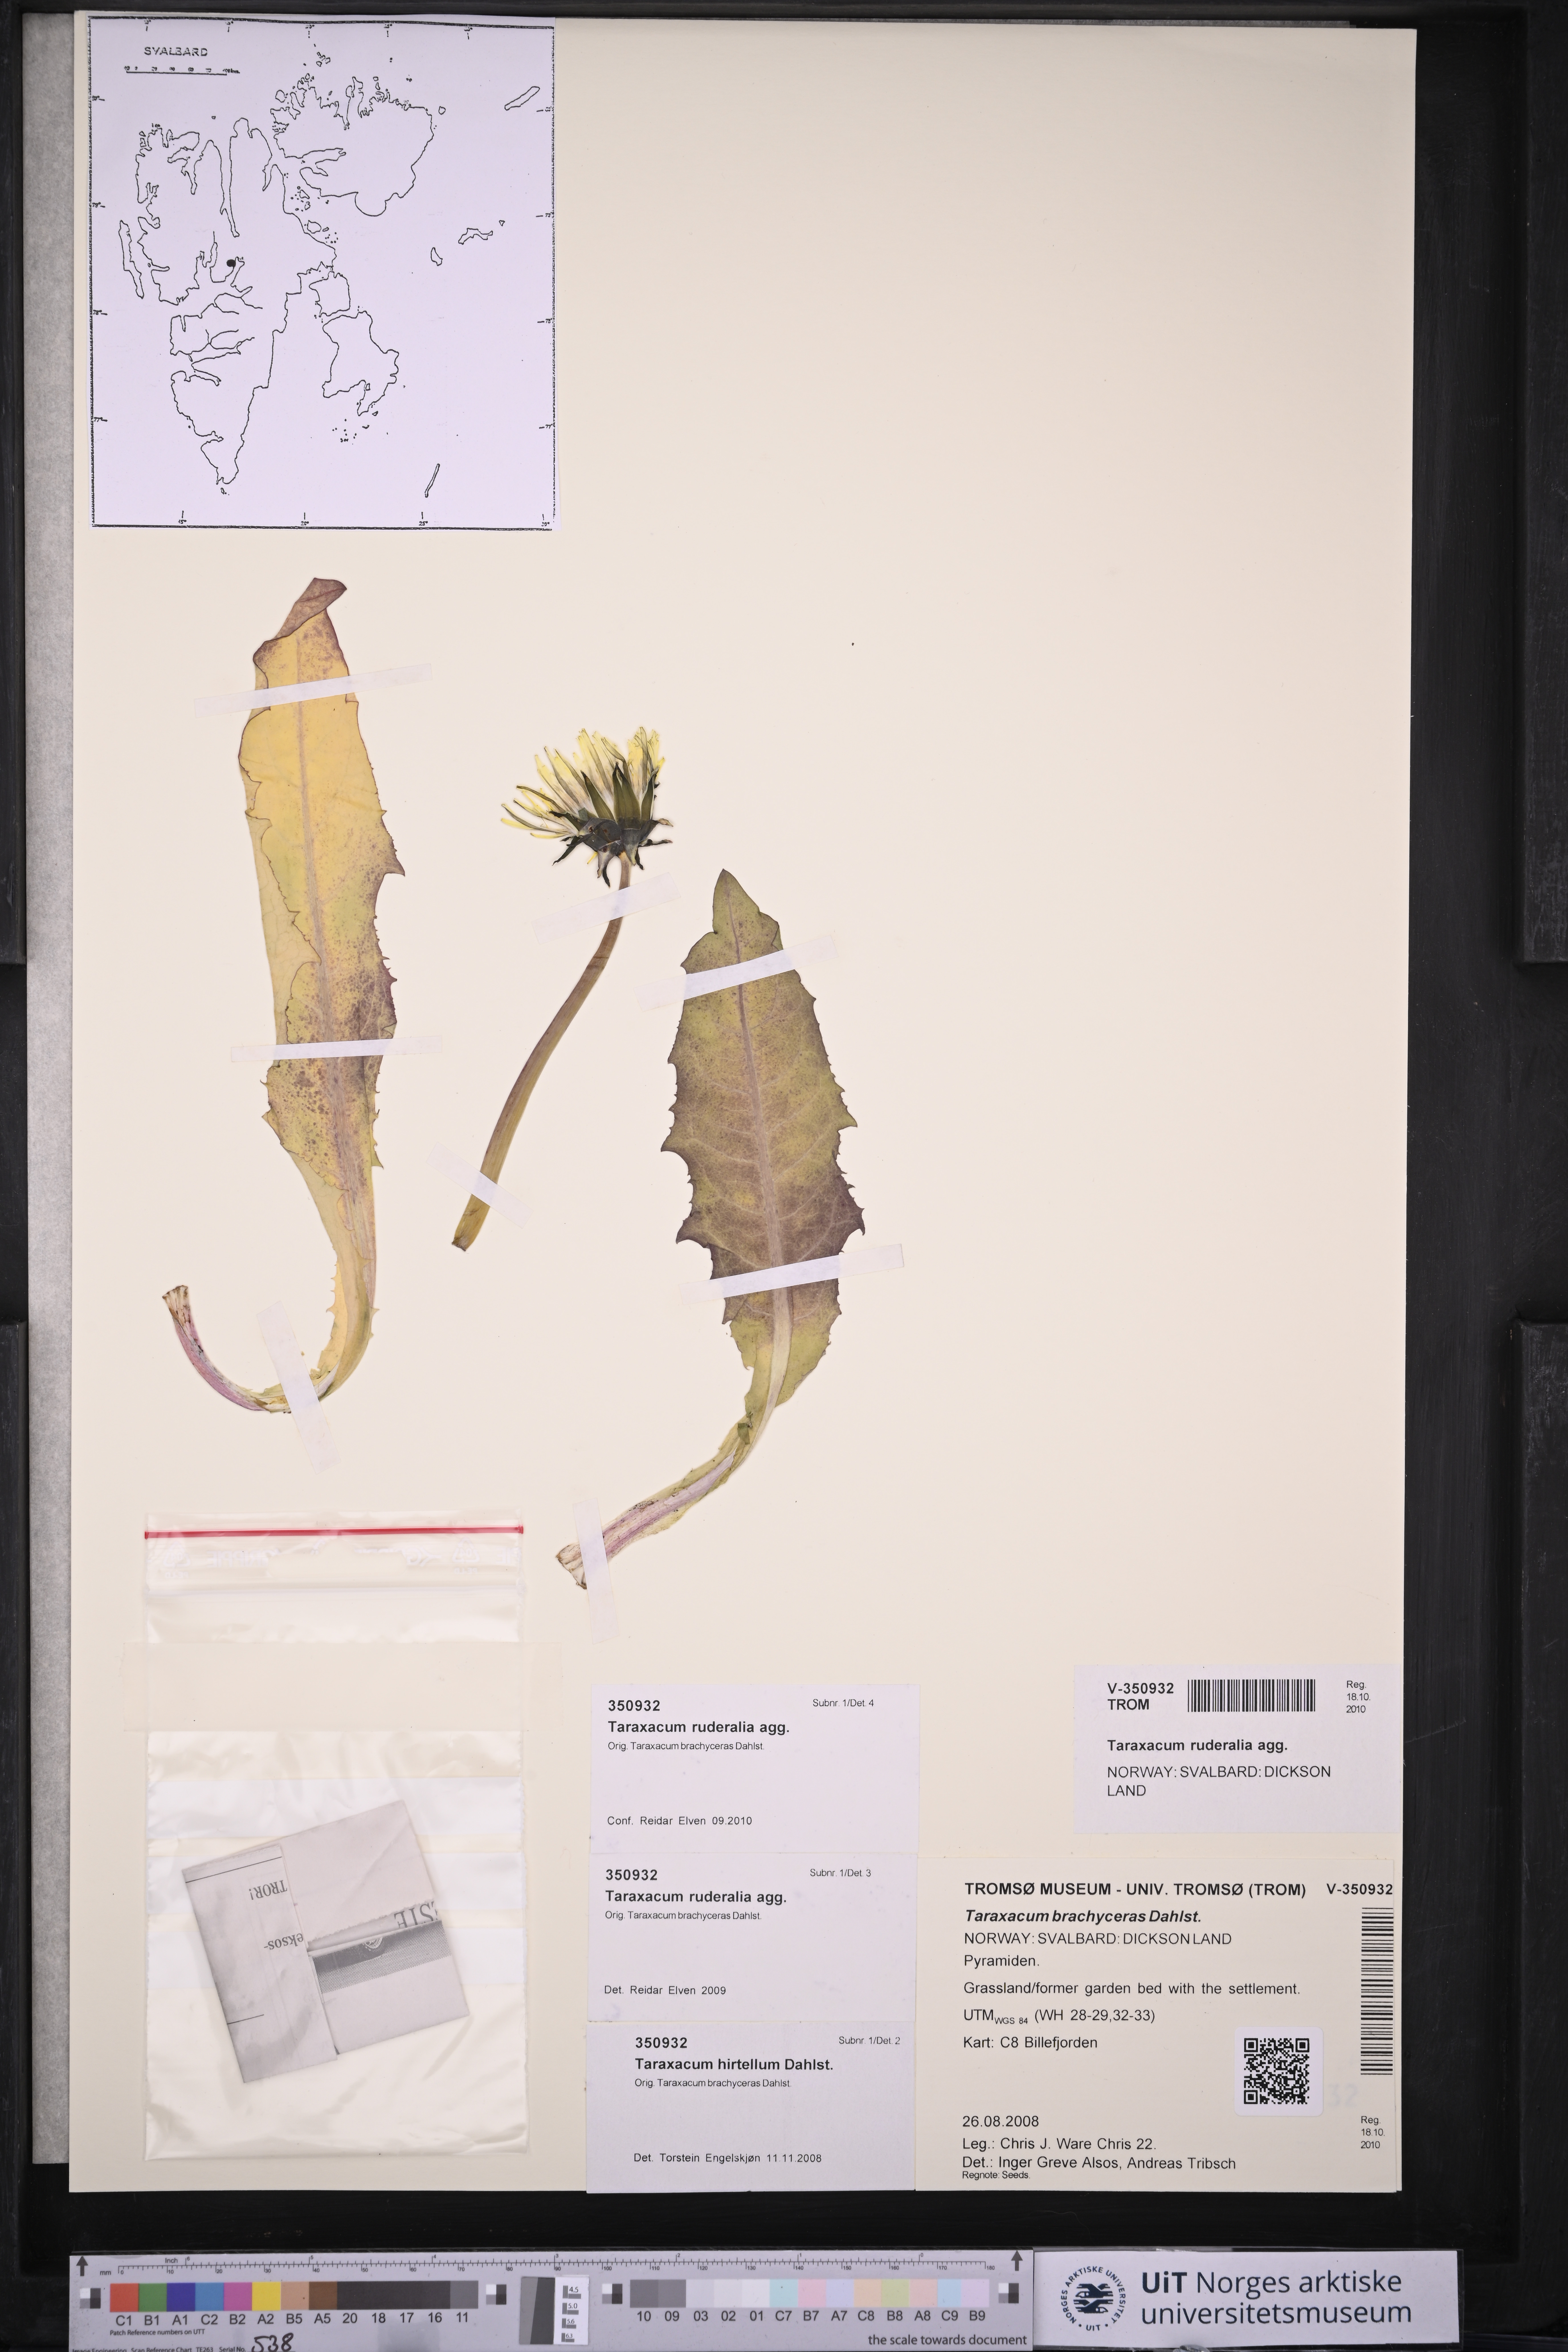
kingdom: Plantae
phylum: Tracheophyta
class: Magnoliopsida
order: Asterales
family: Asteraceae
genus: Taraxacum
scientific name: Taraxacum
